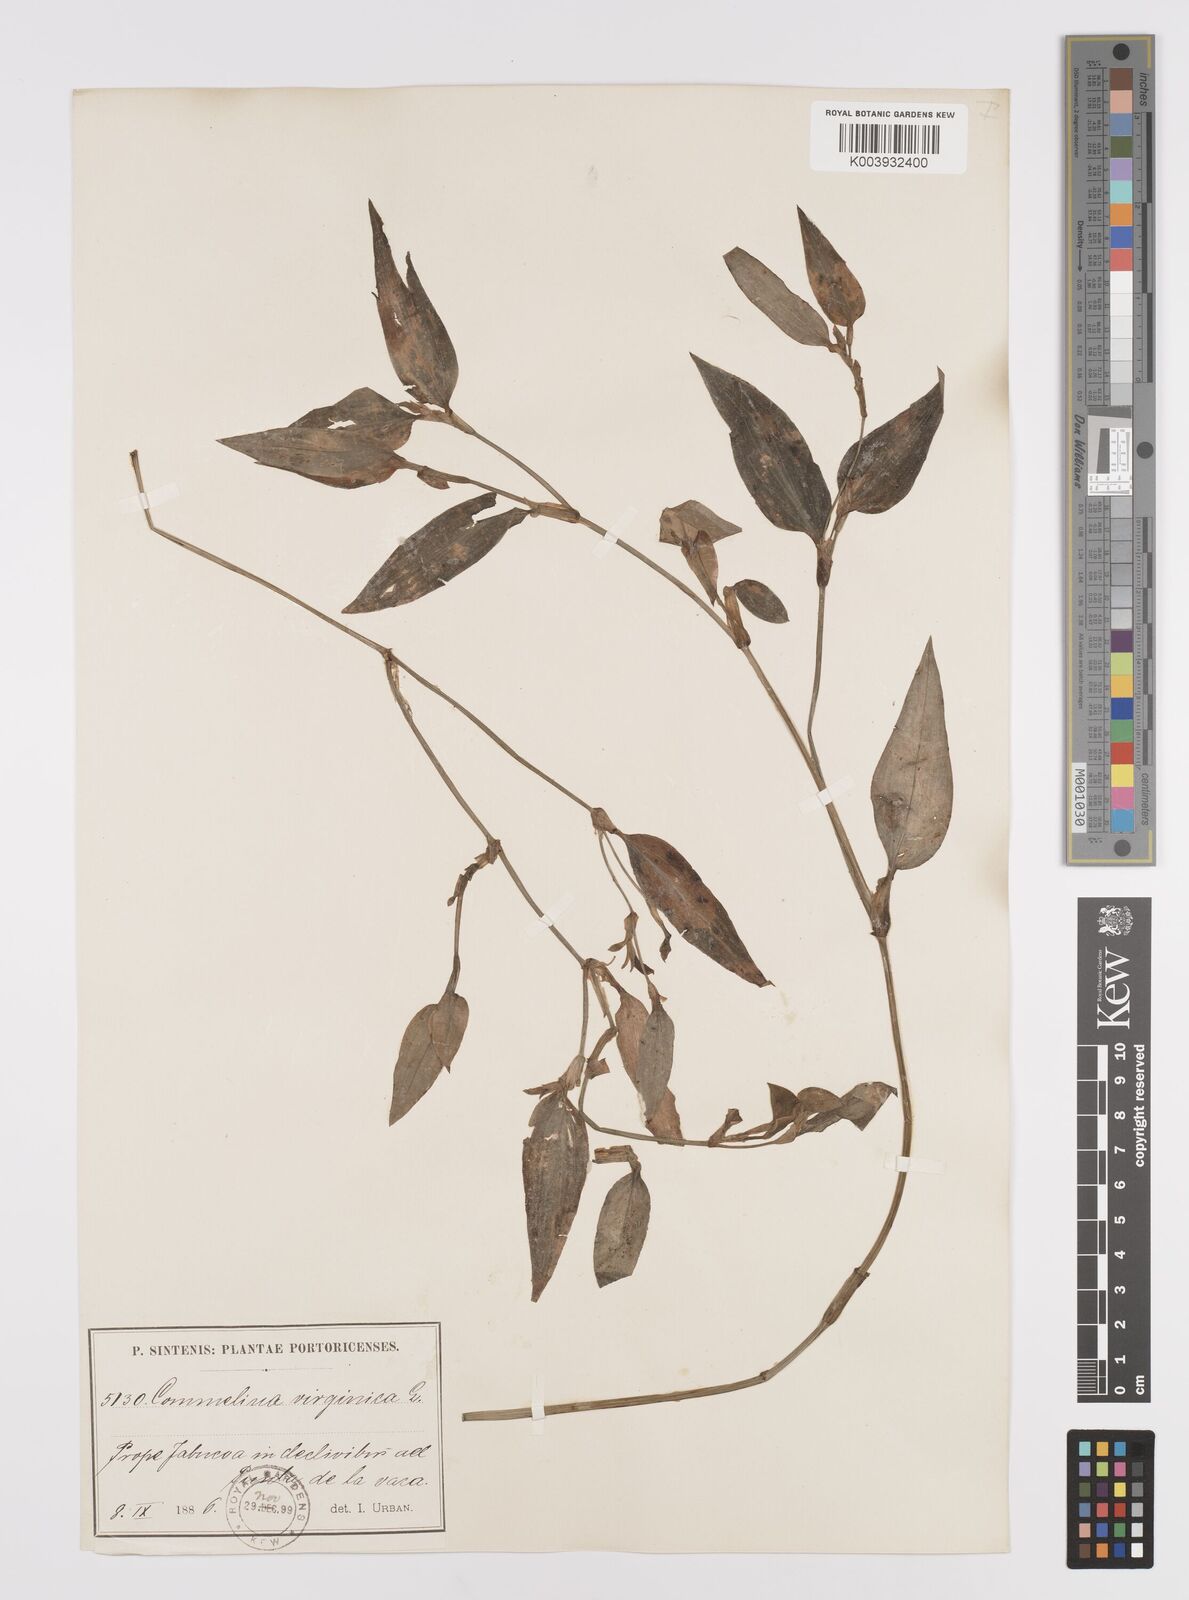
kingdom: Plantae
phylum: Tracheophyta
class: Liliopsida
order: Commelinales
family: Commelinaceae
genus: Commelina
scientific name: Commelina virginica
